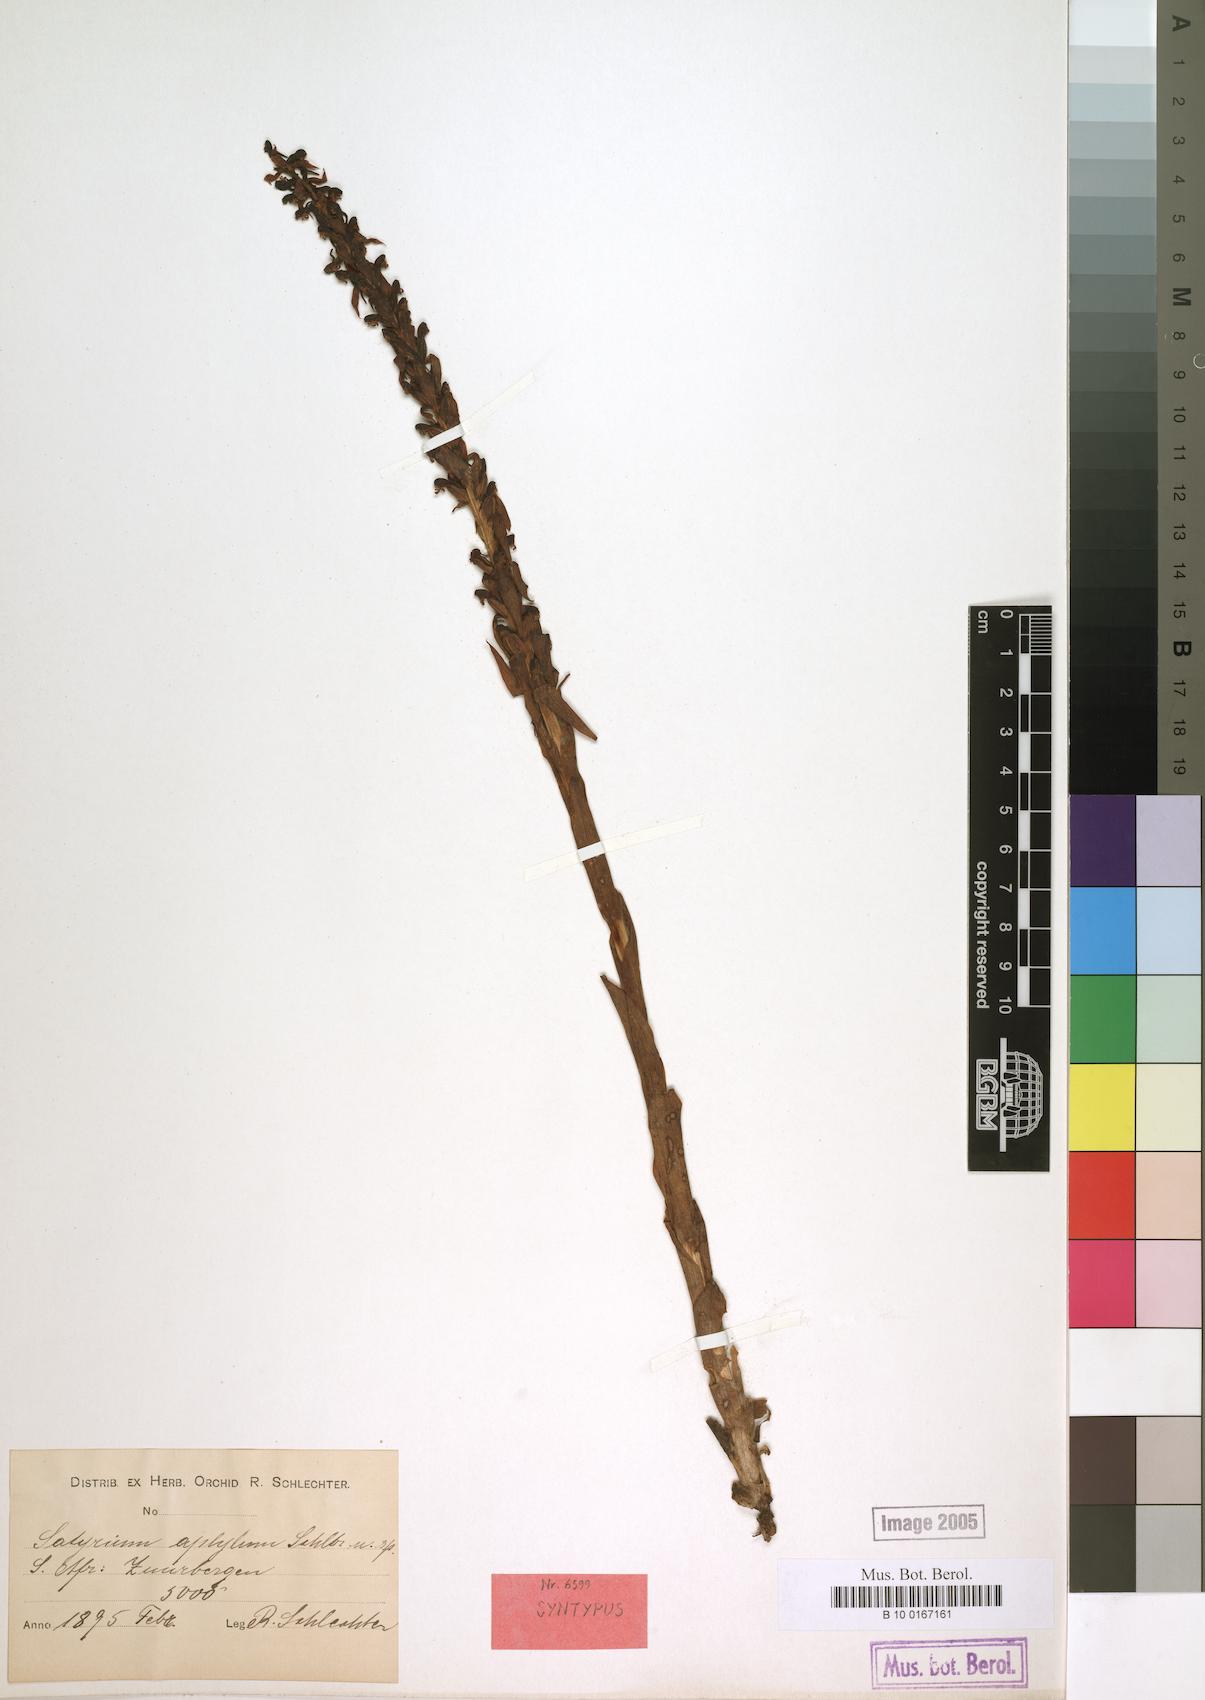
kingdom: Plantae
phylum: Tracheophyta
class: Liliopsida
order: Asparagales
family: Orchidaceae
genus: Satyrium
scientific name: Satyrium parviflorum
